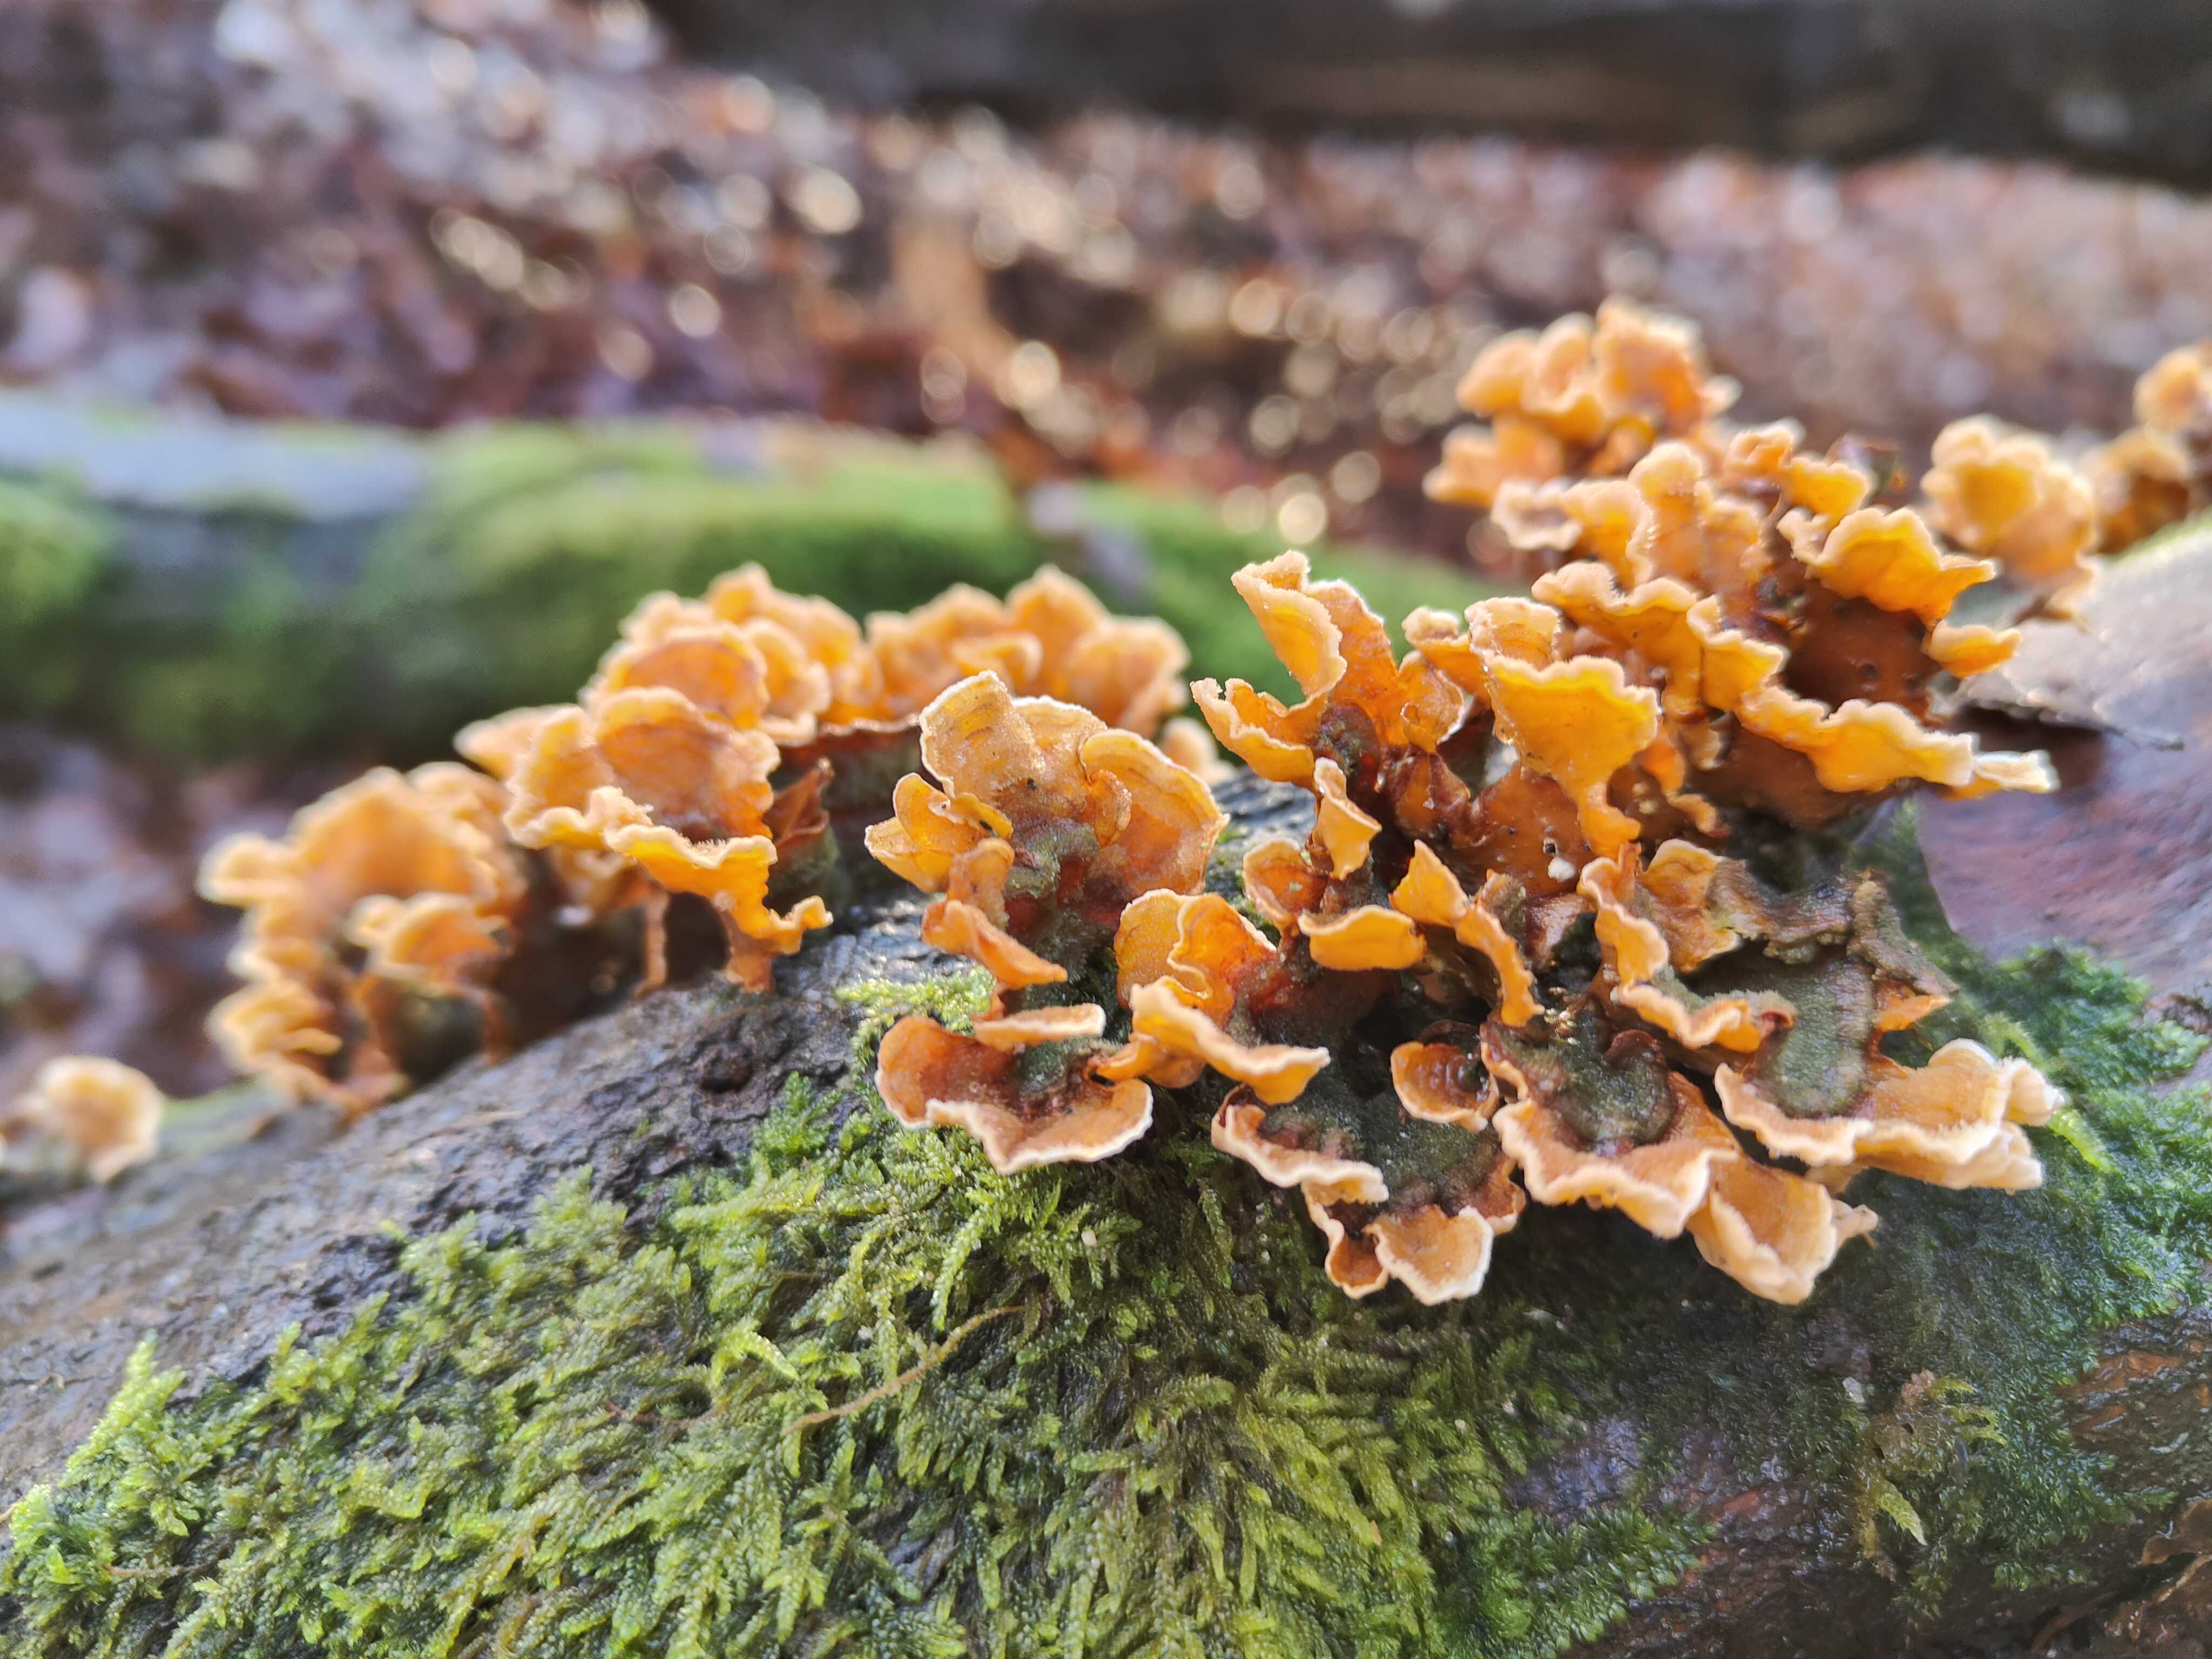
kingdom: Fungi
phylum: Basidiomycota
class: Agaricomycetes
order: Russulales
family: Stereaceae
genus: Stereum
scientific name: Stereum hirsutum
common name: håret lædersvamp
